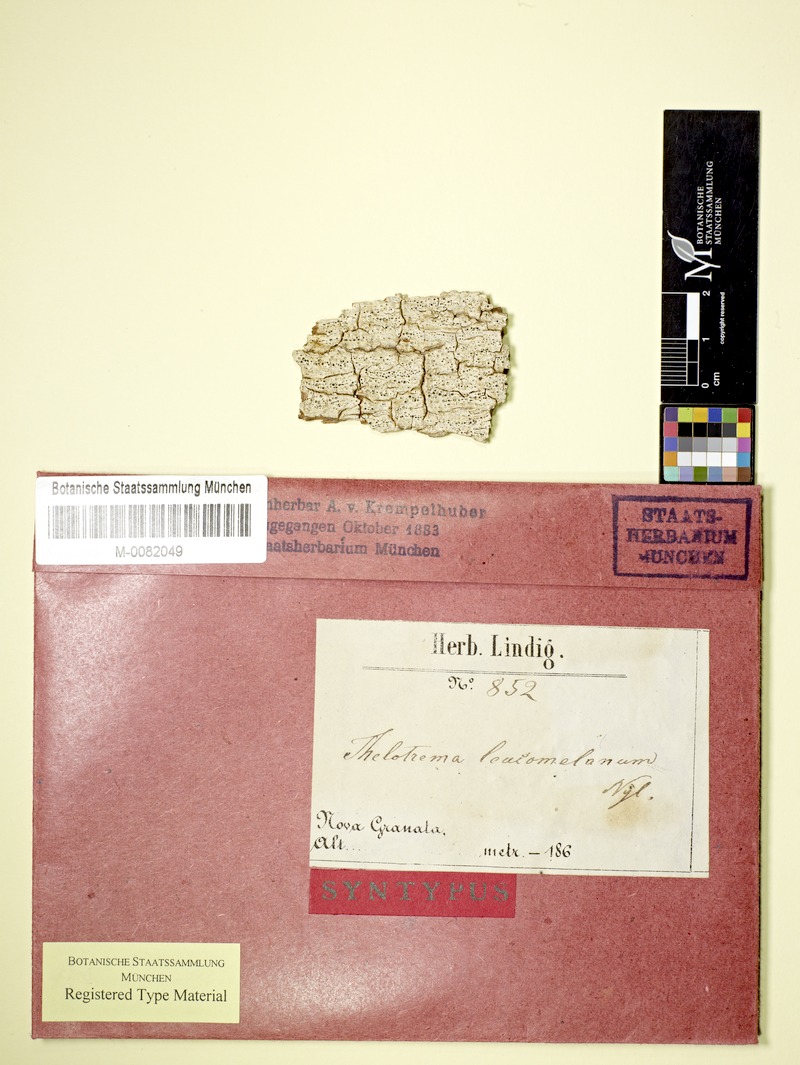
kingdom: Fungi
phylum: Ascomycota
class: Lecanoromycetes
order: Ostropales
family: Graphidaceae
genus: Thelotrema
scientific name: Thelotrema leucomelaenum
